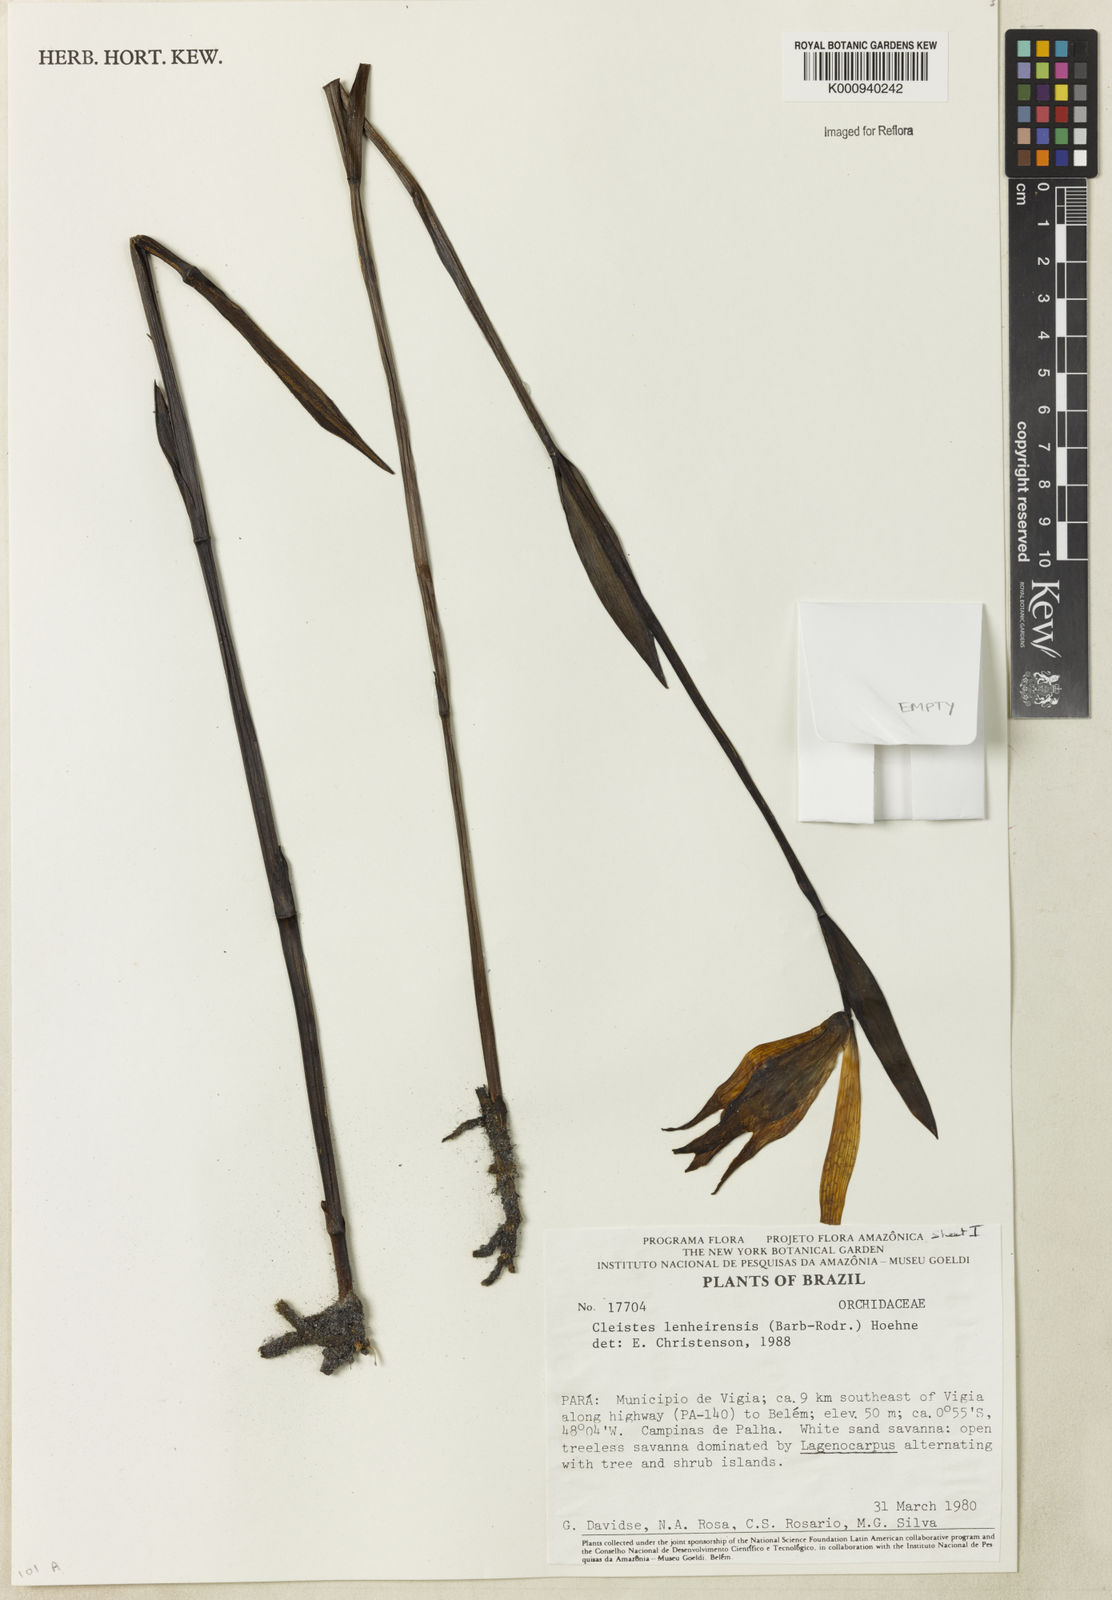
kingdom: Plantae
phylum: Tracheophyta
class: Liliopsida
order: Asparagales
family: Orchidaceae
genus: Cleistes
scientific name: Cleistes speciosa
